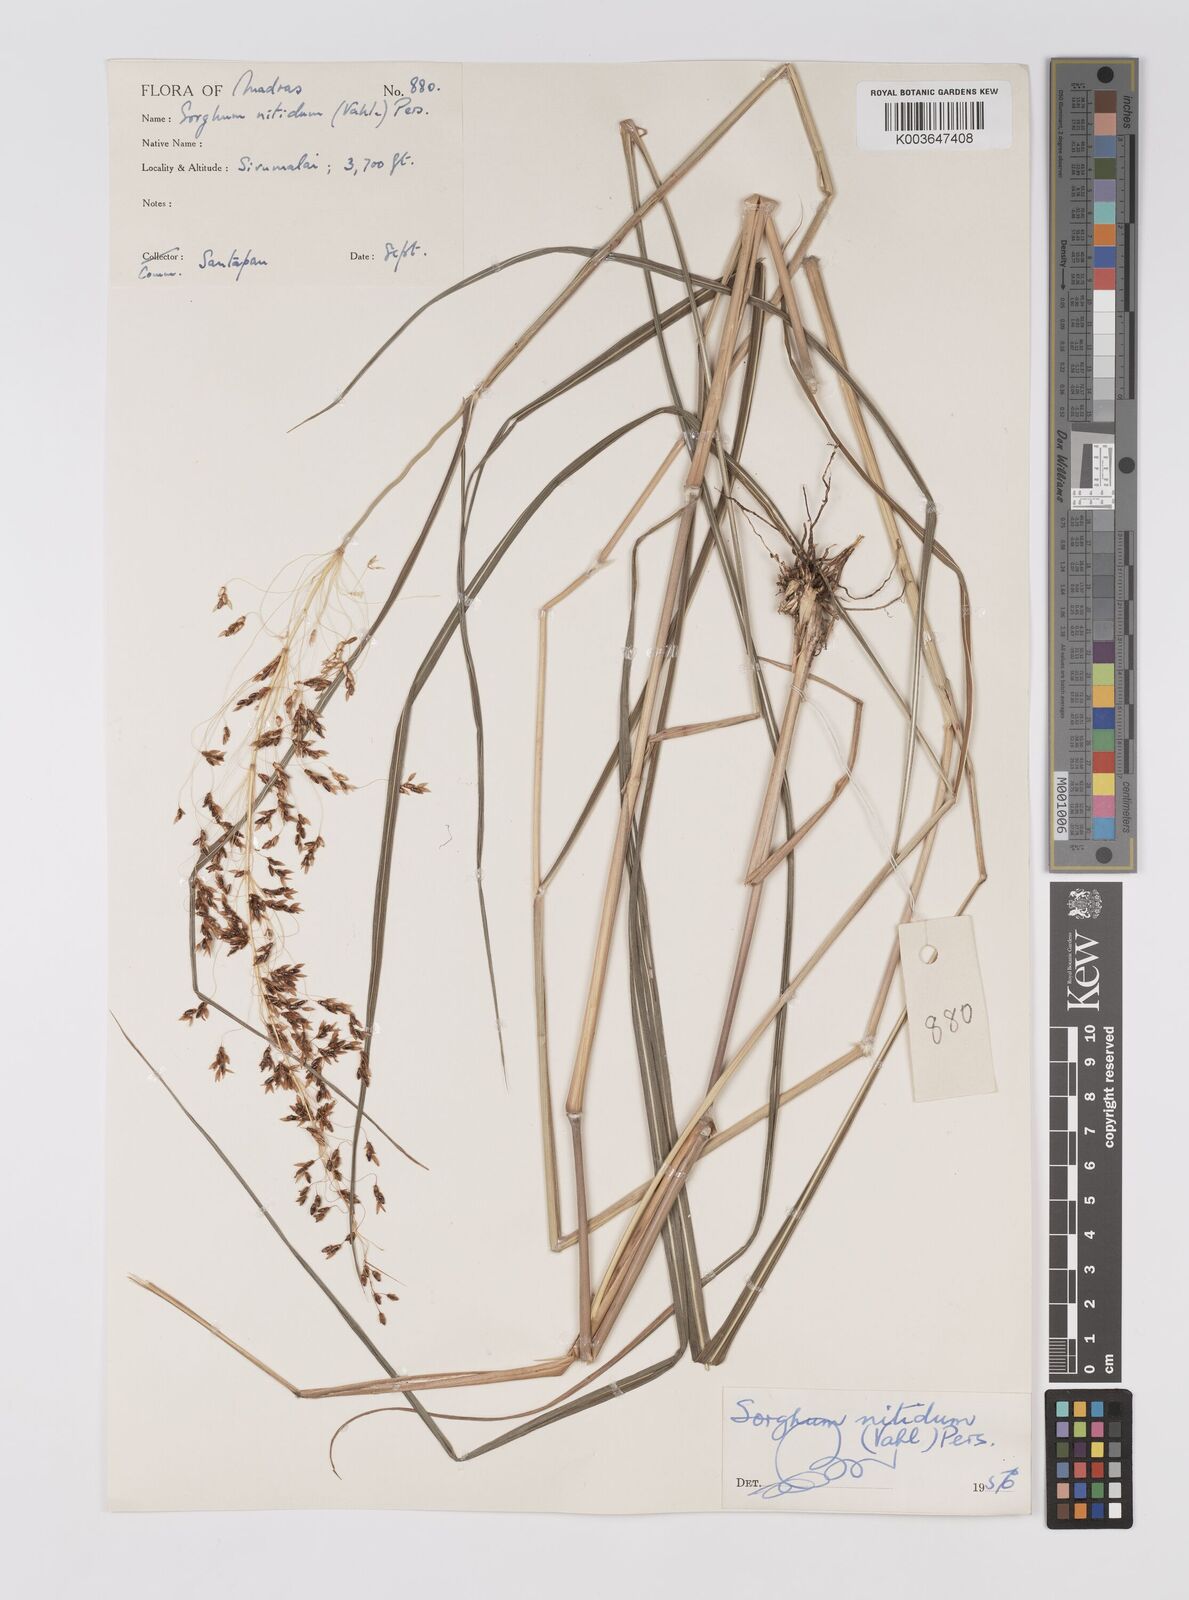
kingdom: Plantae
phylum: Tracheophyta
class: Liliopsida
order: Poales
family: Poaceae
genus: Sorghum
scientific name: Sorghum nitidum
